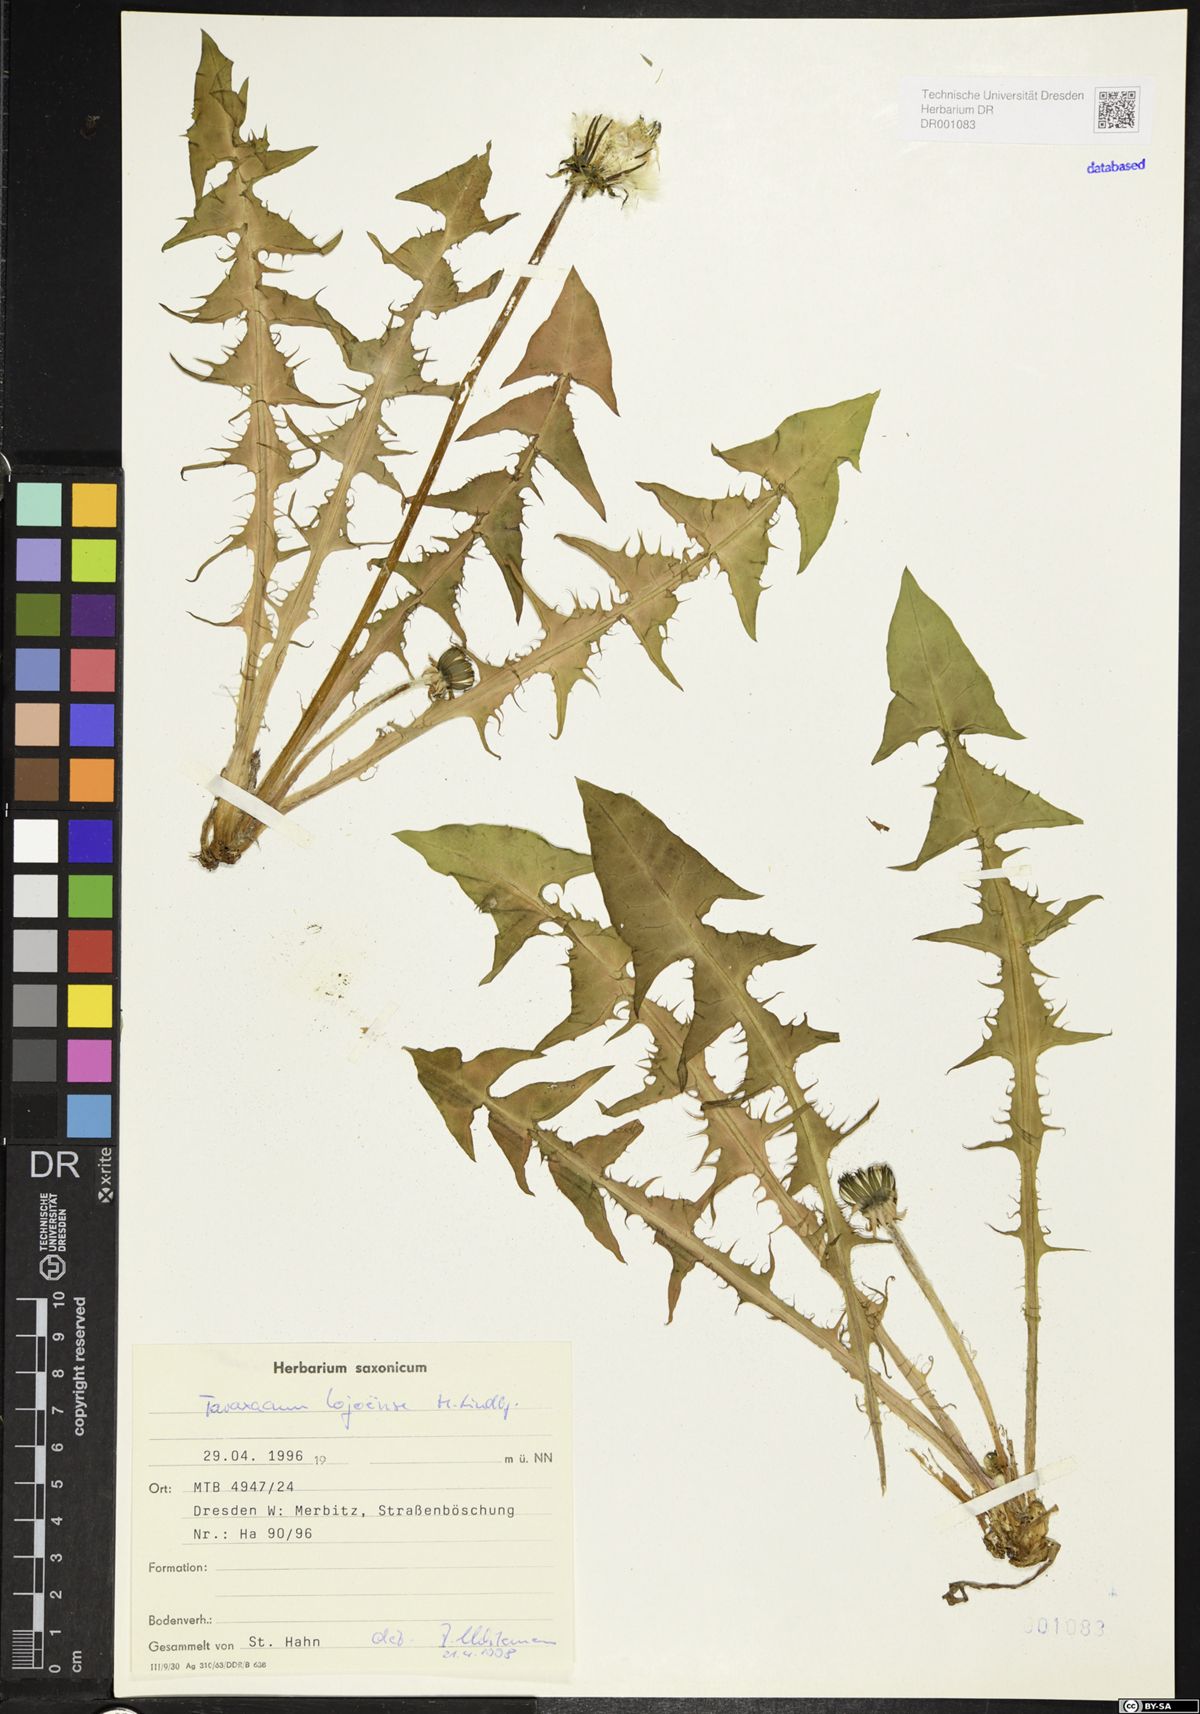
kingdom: Plantae
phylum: Tracheophyta
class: Magnoliopsida
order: Asterales
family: Asteraceae
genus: Taraxacum
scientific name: Taraxacum debrayi
